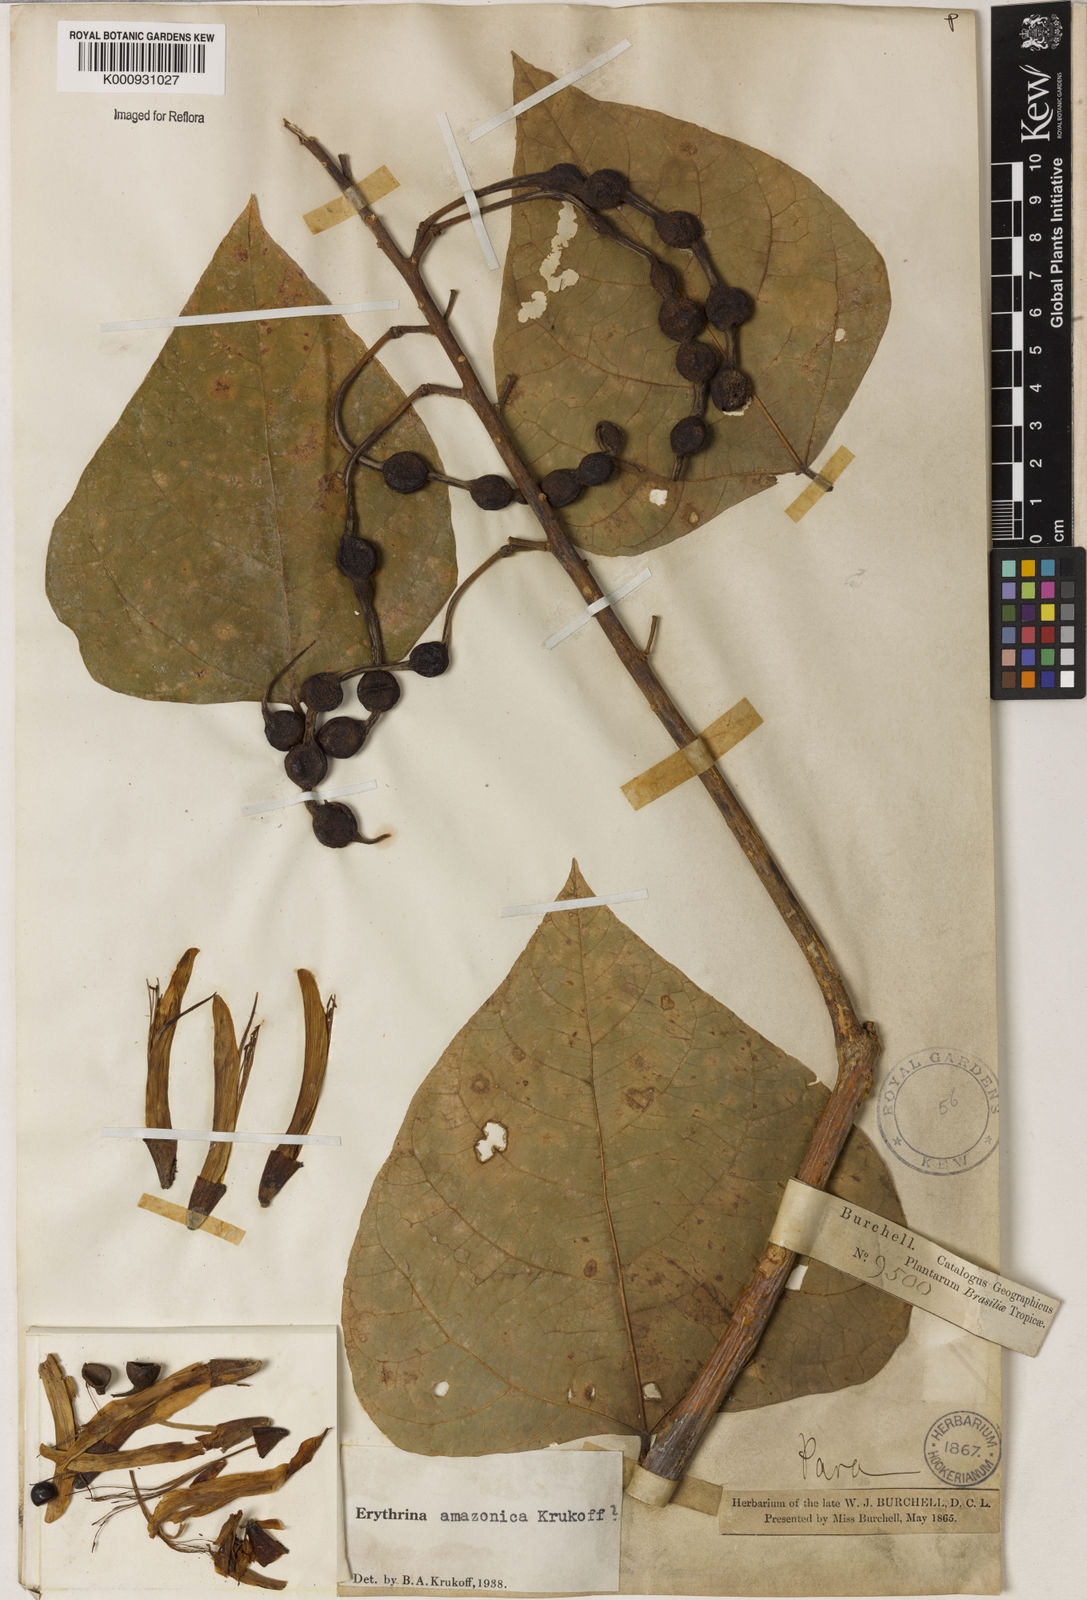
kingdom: Plantae
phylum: Tracheophyta
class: Magnoliopsida
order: Fabales
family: Fabaceae
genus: Erythrina
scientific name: Erythrina amazonica
